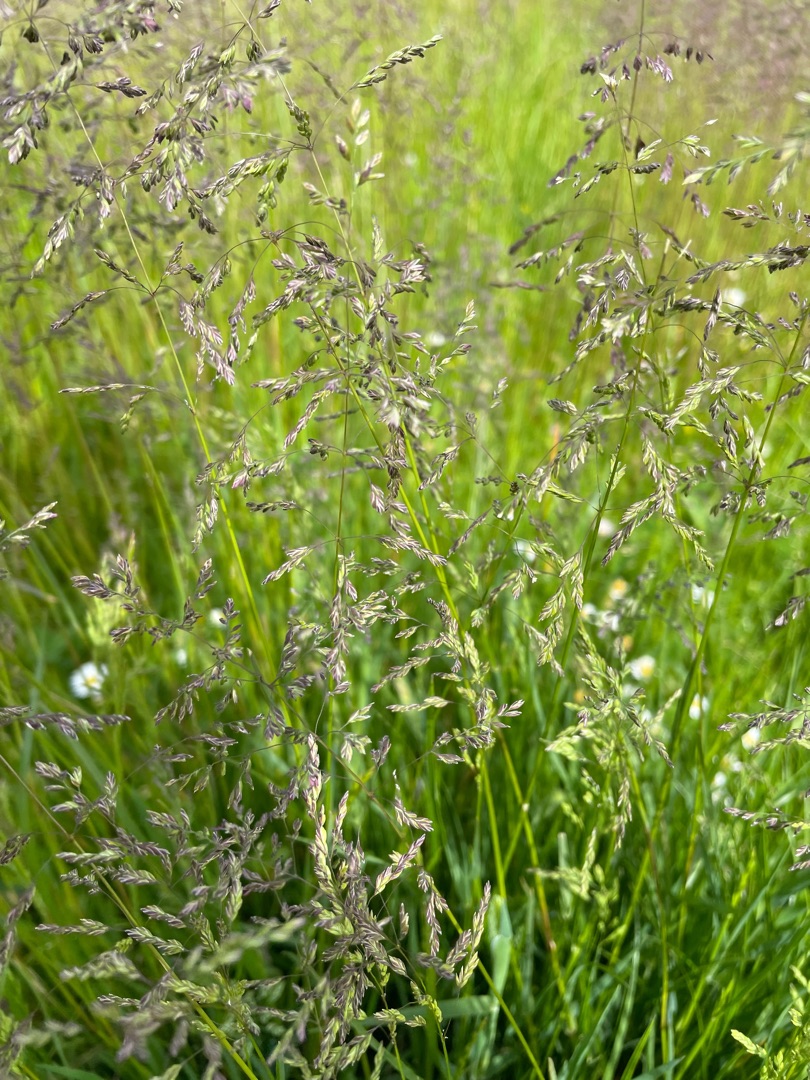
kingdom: Plantae
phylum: Tracheophyta
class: Liliopsida
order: Poales
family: Poaceae
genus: Poa
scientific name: Poa
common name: Rapgræsslægten
